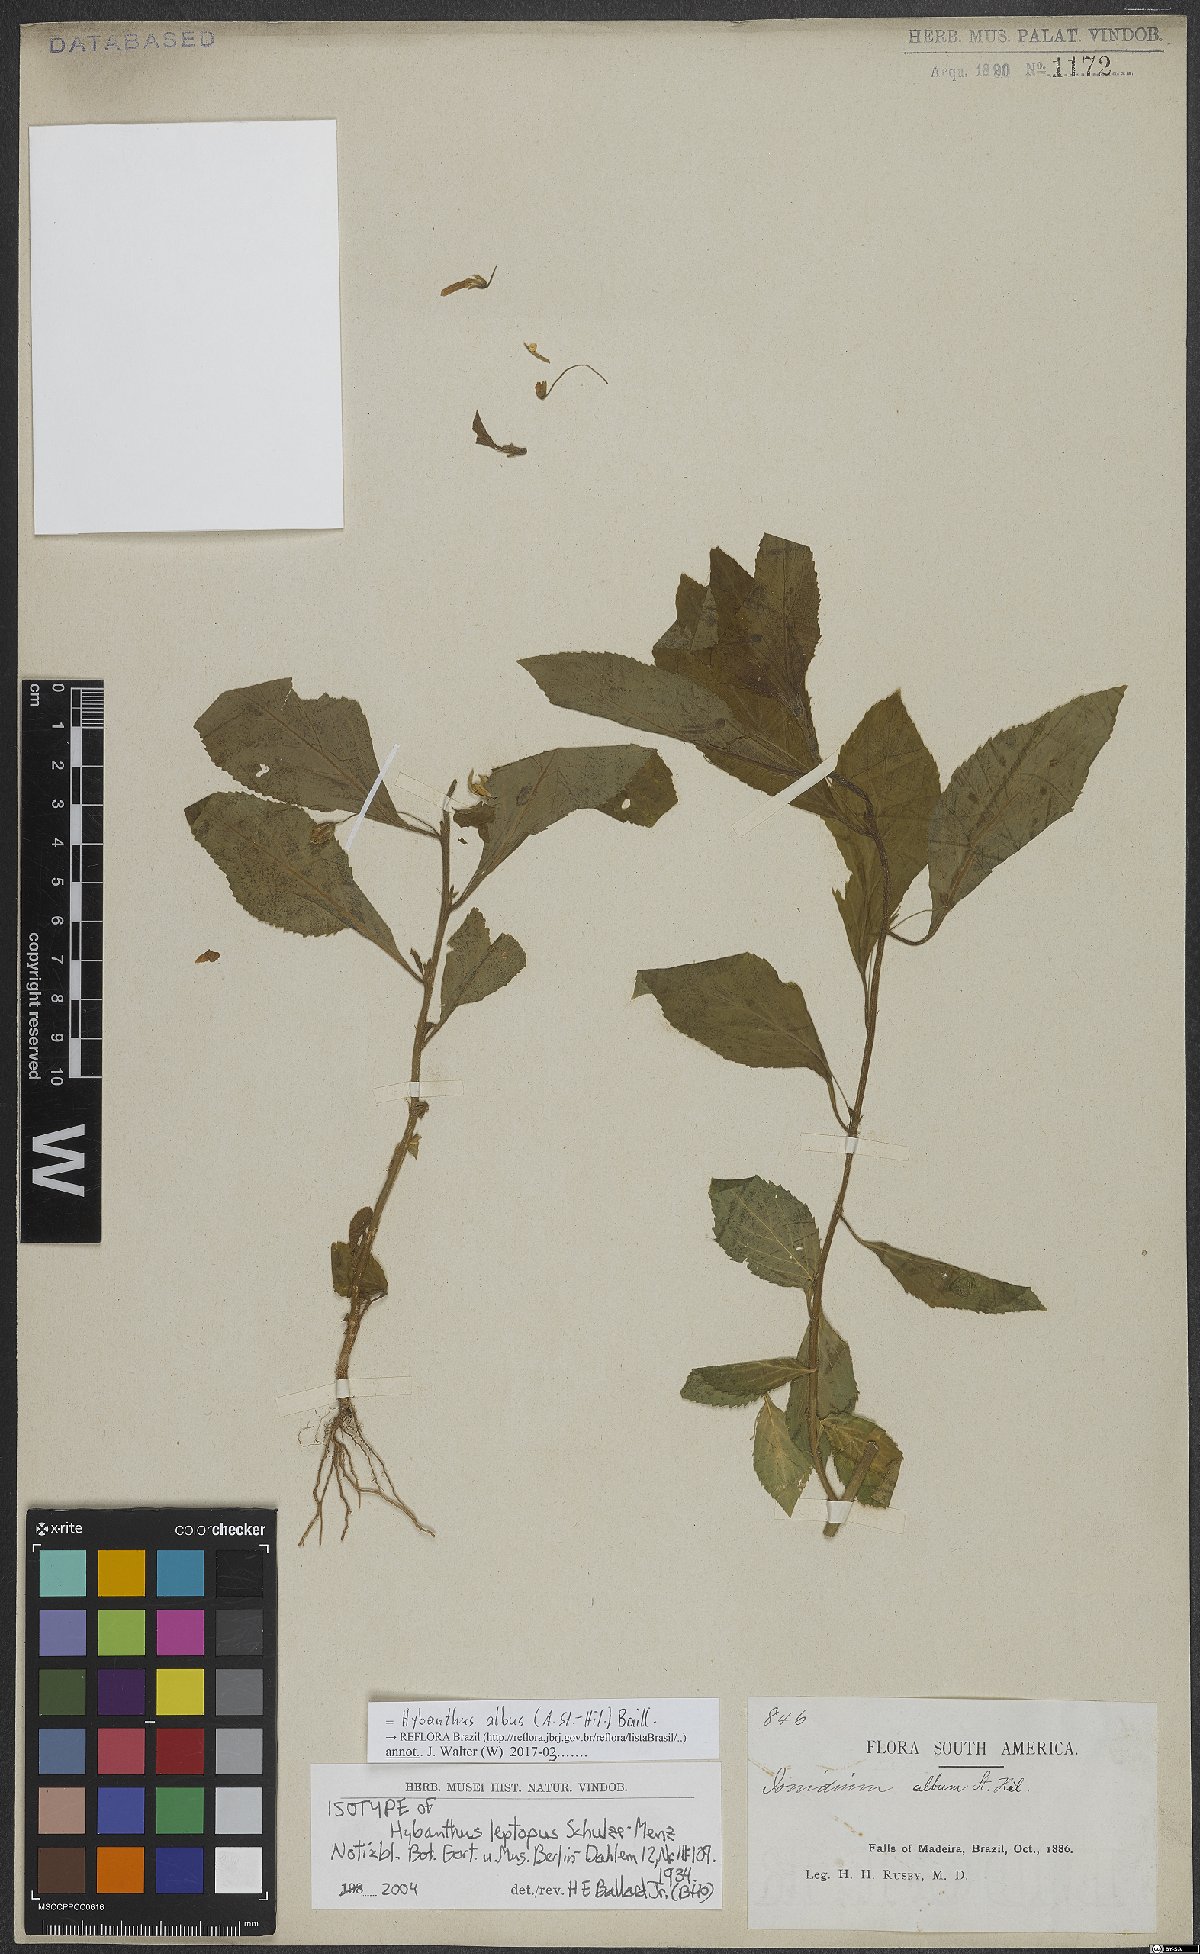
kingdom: Plantae
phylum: Tracheophyta
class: Magnoliopsida
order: Malpighiales
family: Violaceae
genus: Hybanthus
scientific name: Hybanthus albus
